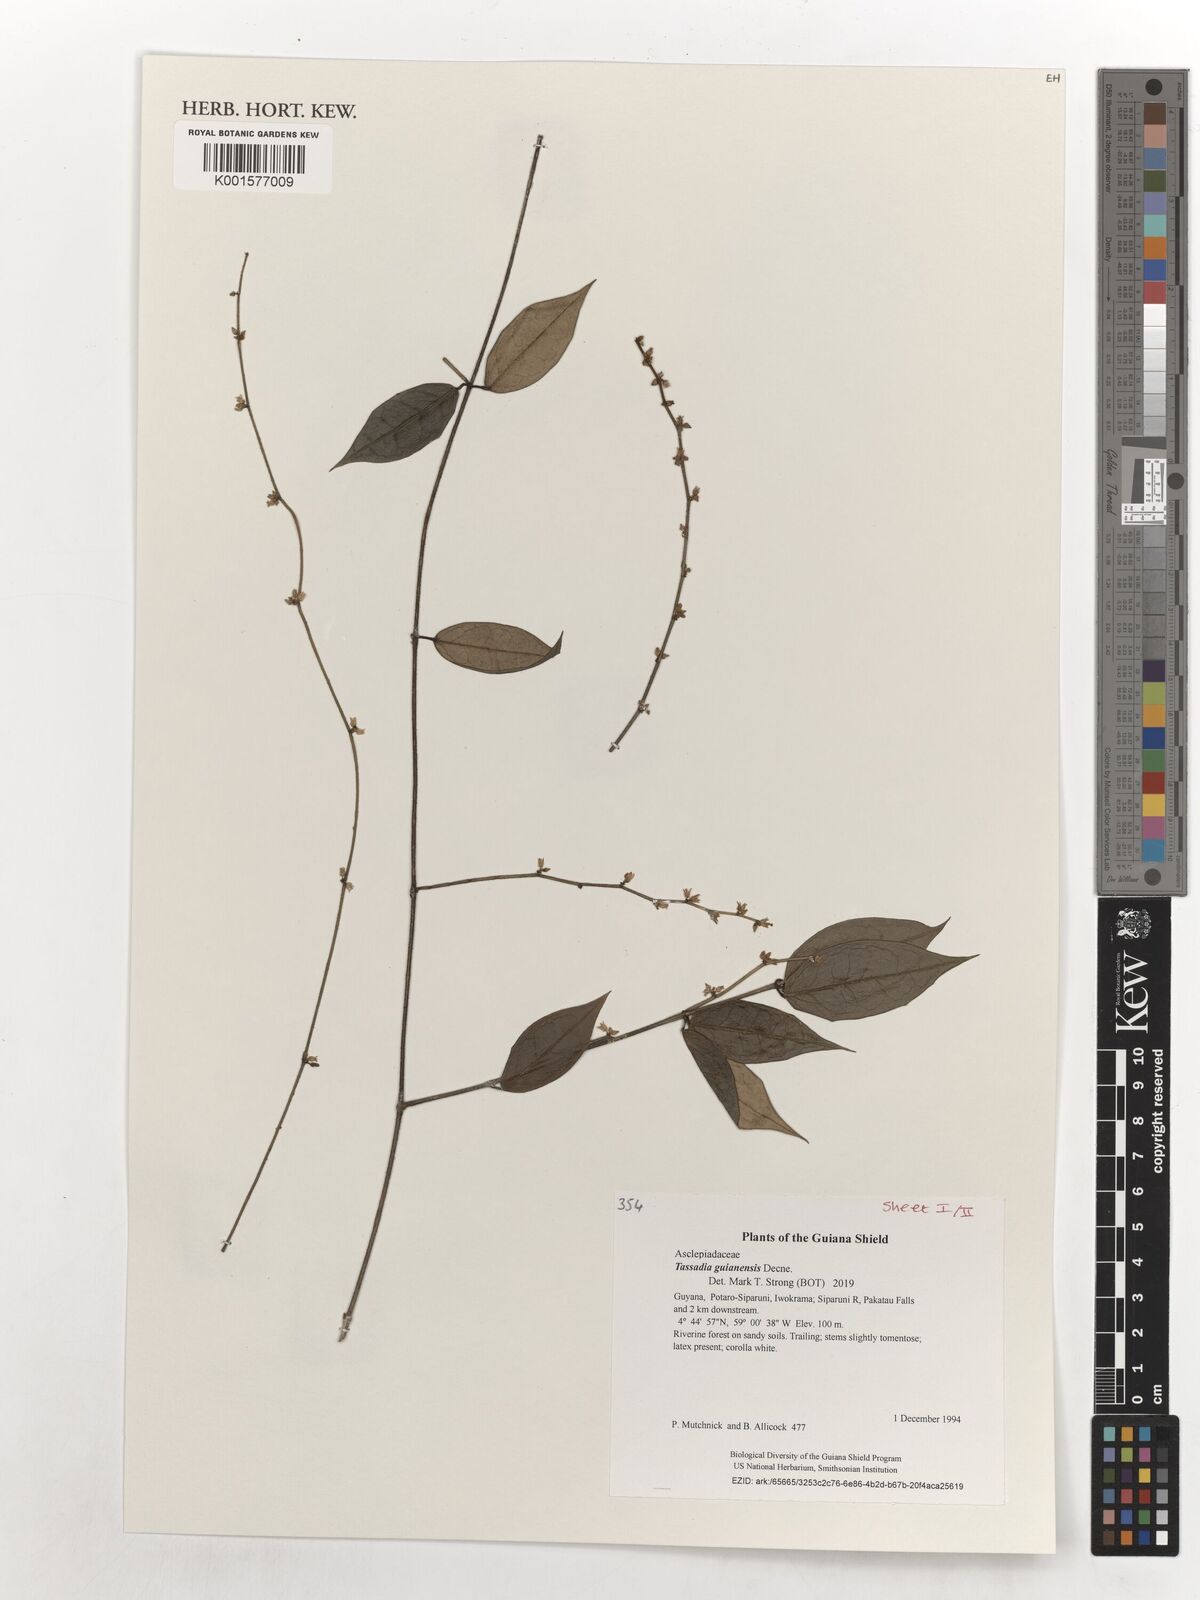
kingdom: Plantae
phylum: Tracheophyta
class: Magnoliopsida
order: Gentianales
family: Apocynaceae
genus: Tassadia
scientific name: Tassadia guianensis
